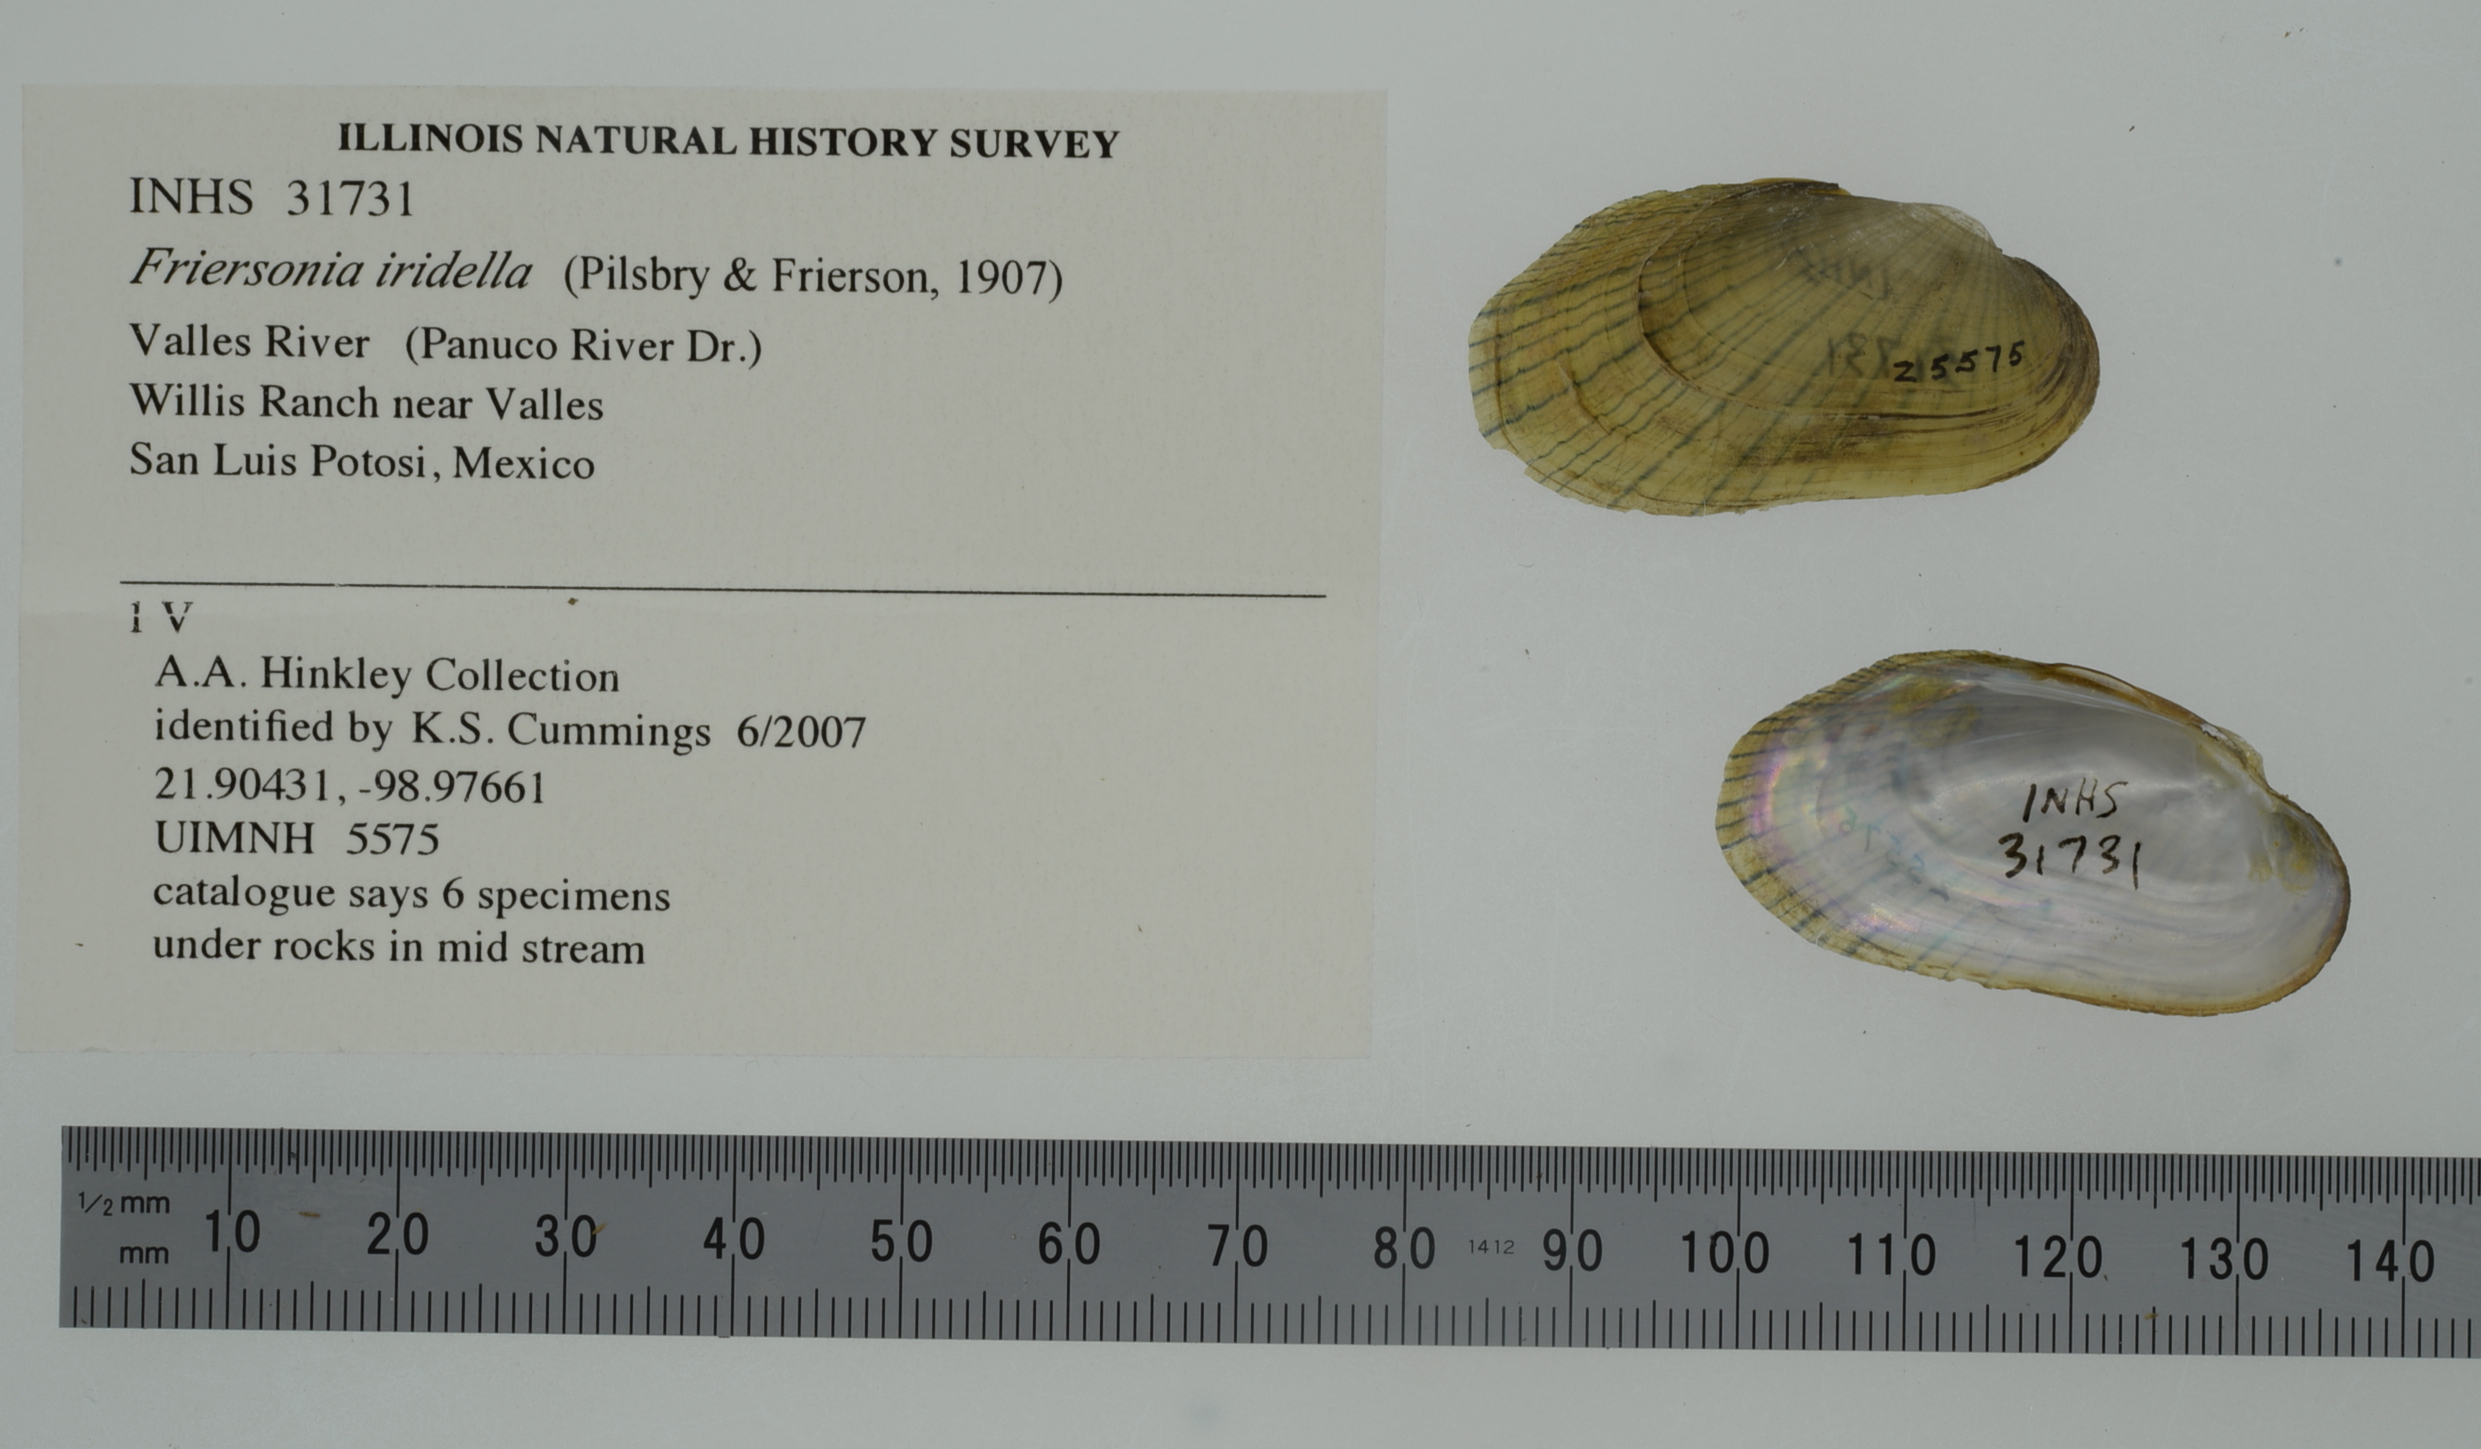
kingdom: Animalia
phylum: Mollusca
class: Bivalvia
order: Unionida
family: Unionidae
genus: Friersonia
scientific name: Friersonia iridella
